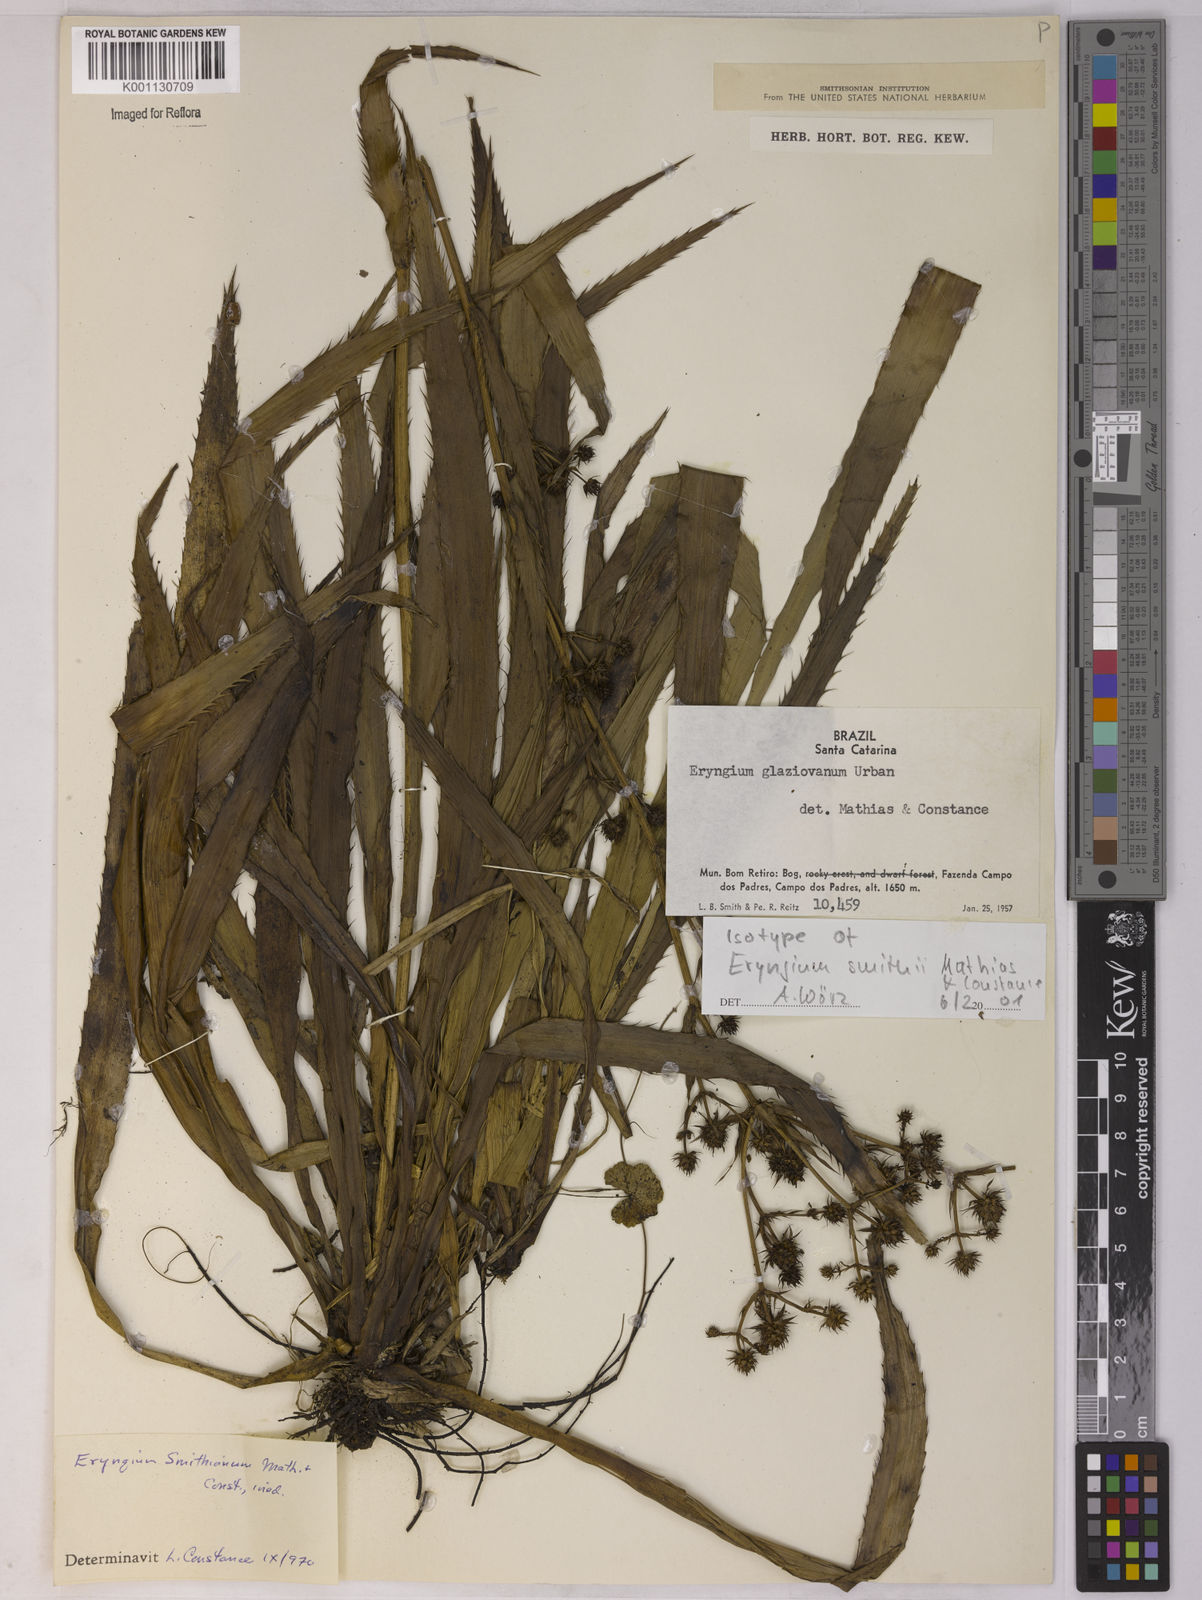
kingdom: Plantae
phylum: Tracheophyta
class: Magnoliopsida
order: Apiales
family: Apiaceae
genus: Eryngium
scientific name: Eryngium
